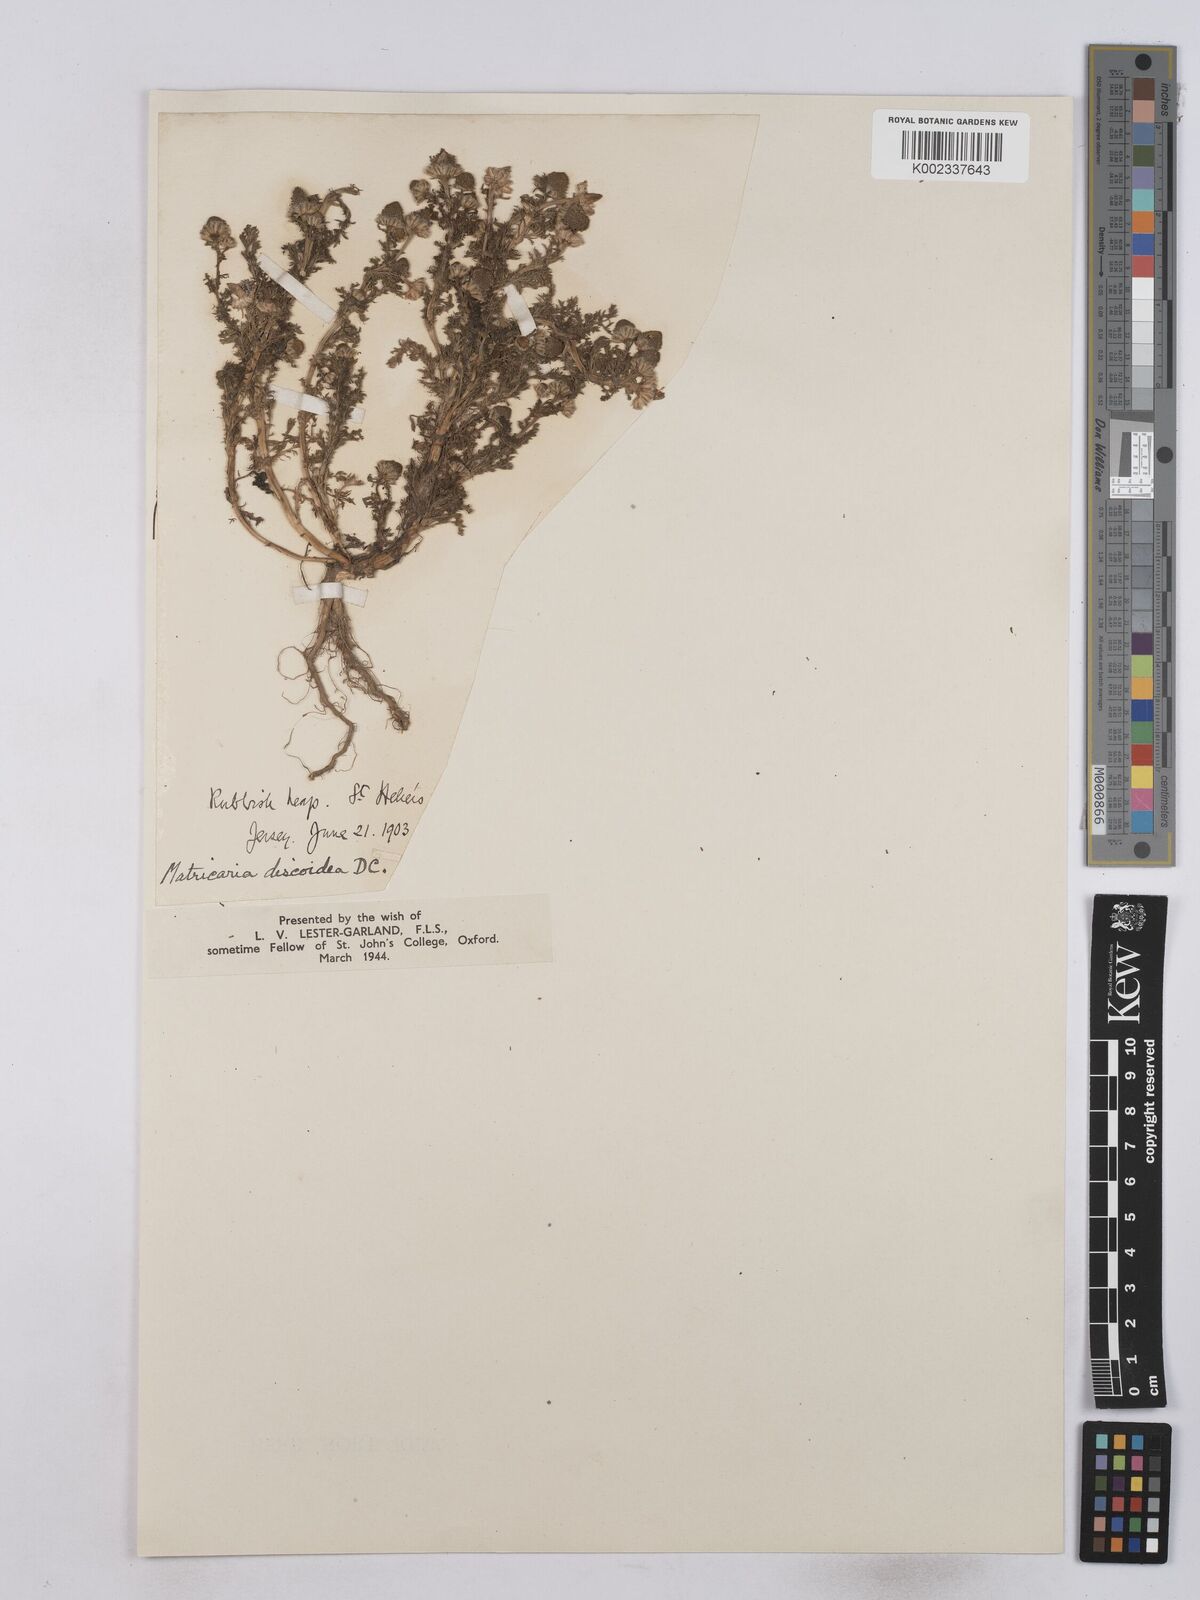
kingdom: Plantae
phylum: Tracheophyta
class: Magnoliopsida
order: Asterales
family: Asteraceae
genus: Matricaria
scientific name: Matricaria discoidea
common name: Disc mayweed
